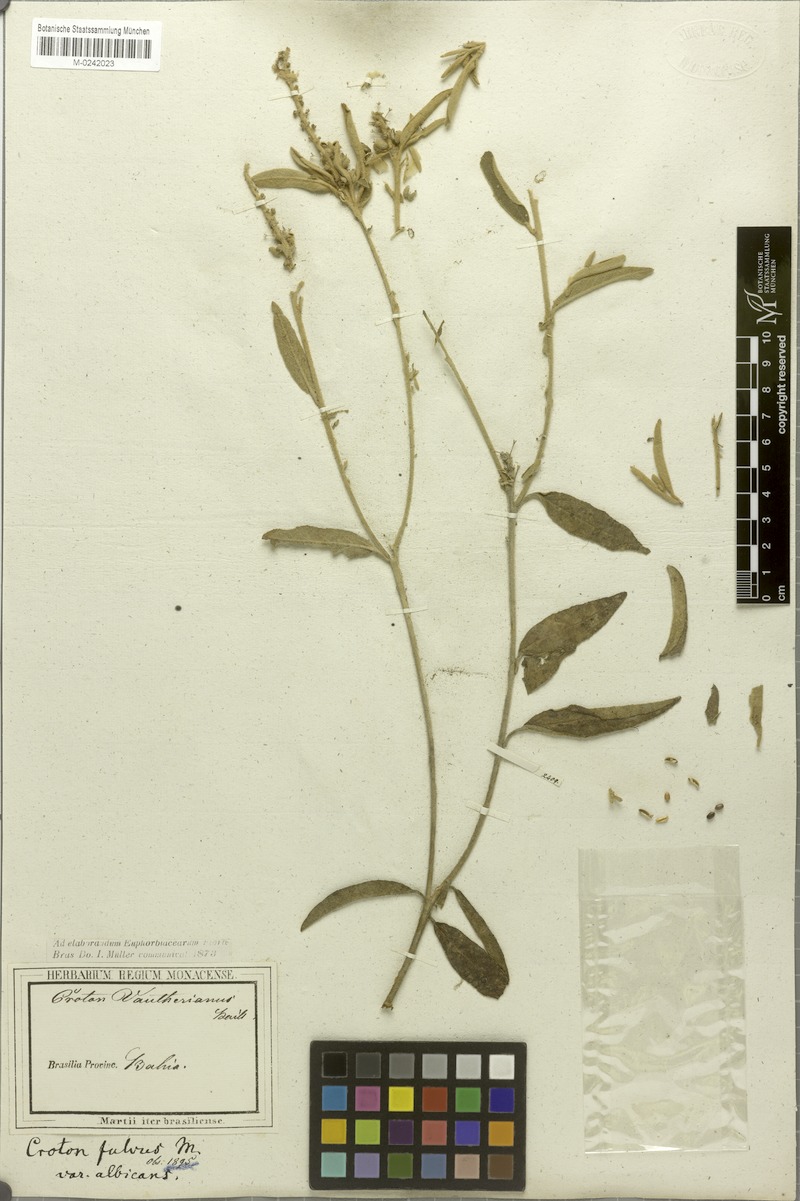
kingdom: Plantae
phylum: Tracheophyta
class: Magnoliopsida
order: Malpighiales
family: Euphorbiaceae
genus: Croton
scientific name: Croton vauthierianus
